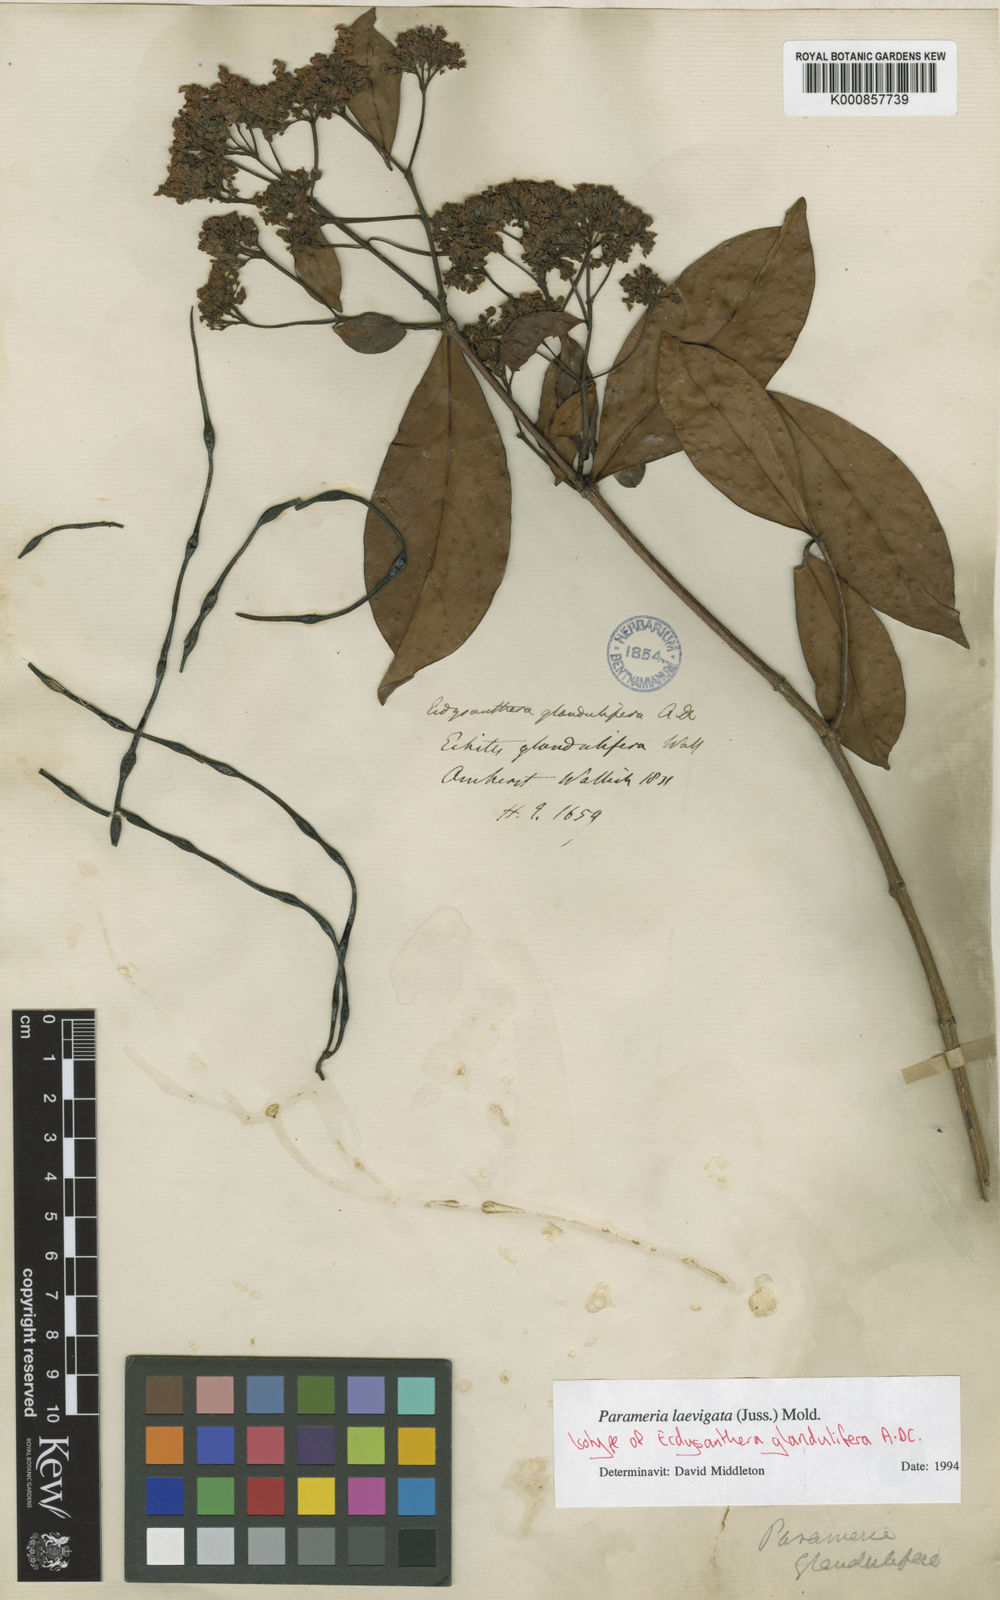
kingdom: Plantae
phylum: Tracheophyta
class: Magnoliopsida
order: Gentianales
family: Apocynaceae
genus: Urceola
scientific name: Urceola laevigata
